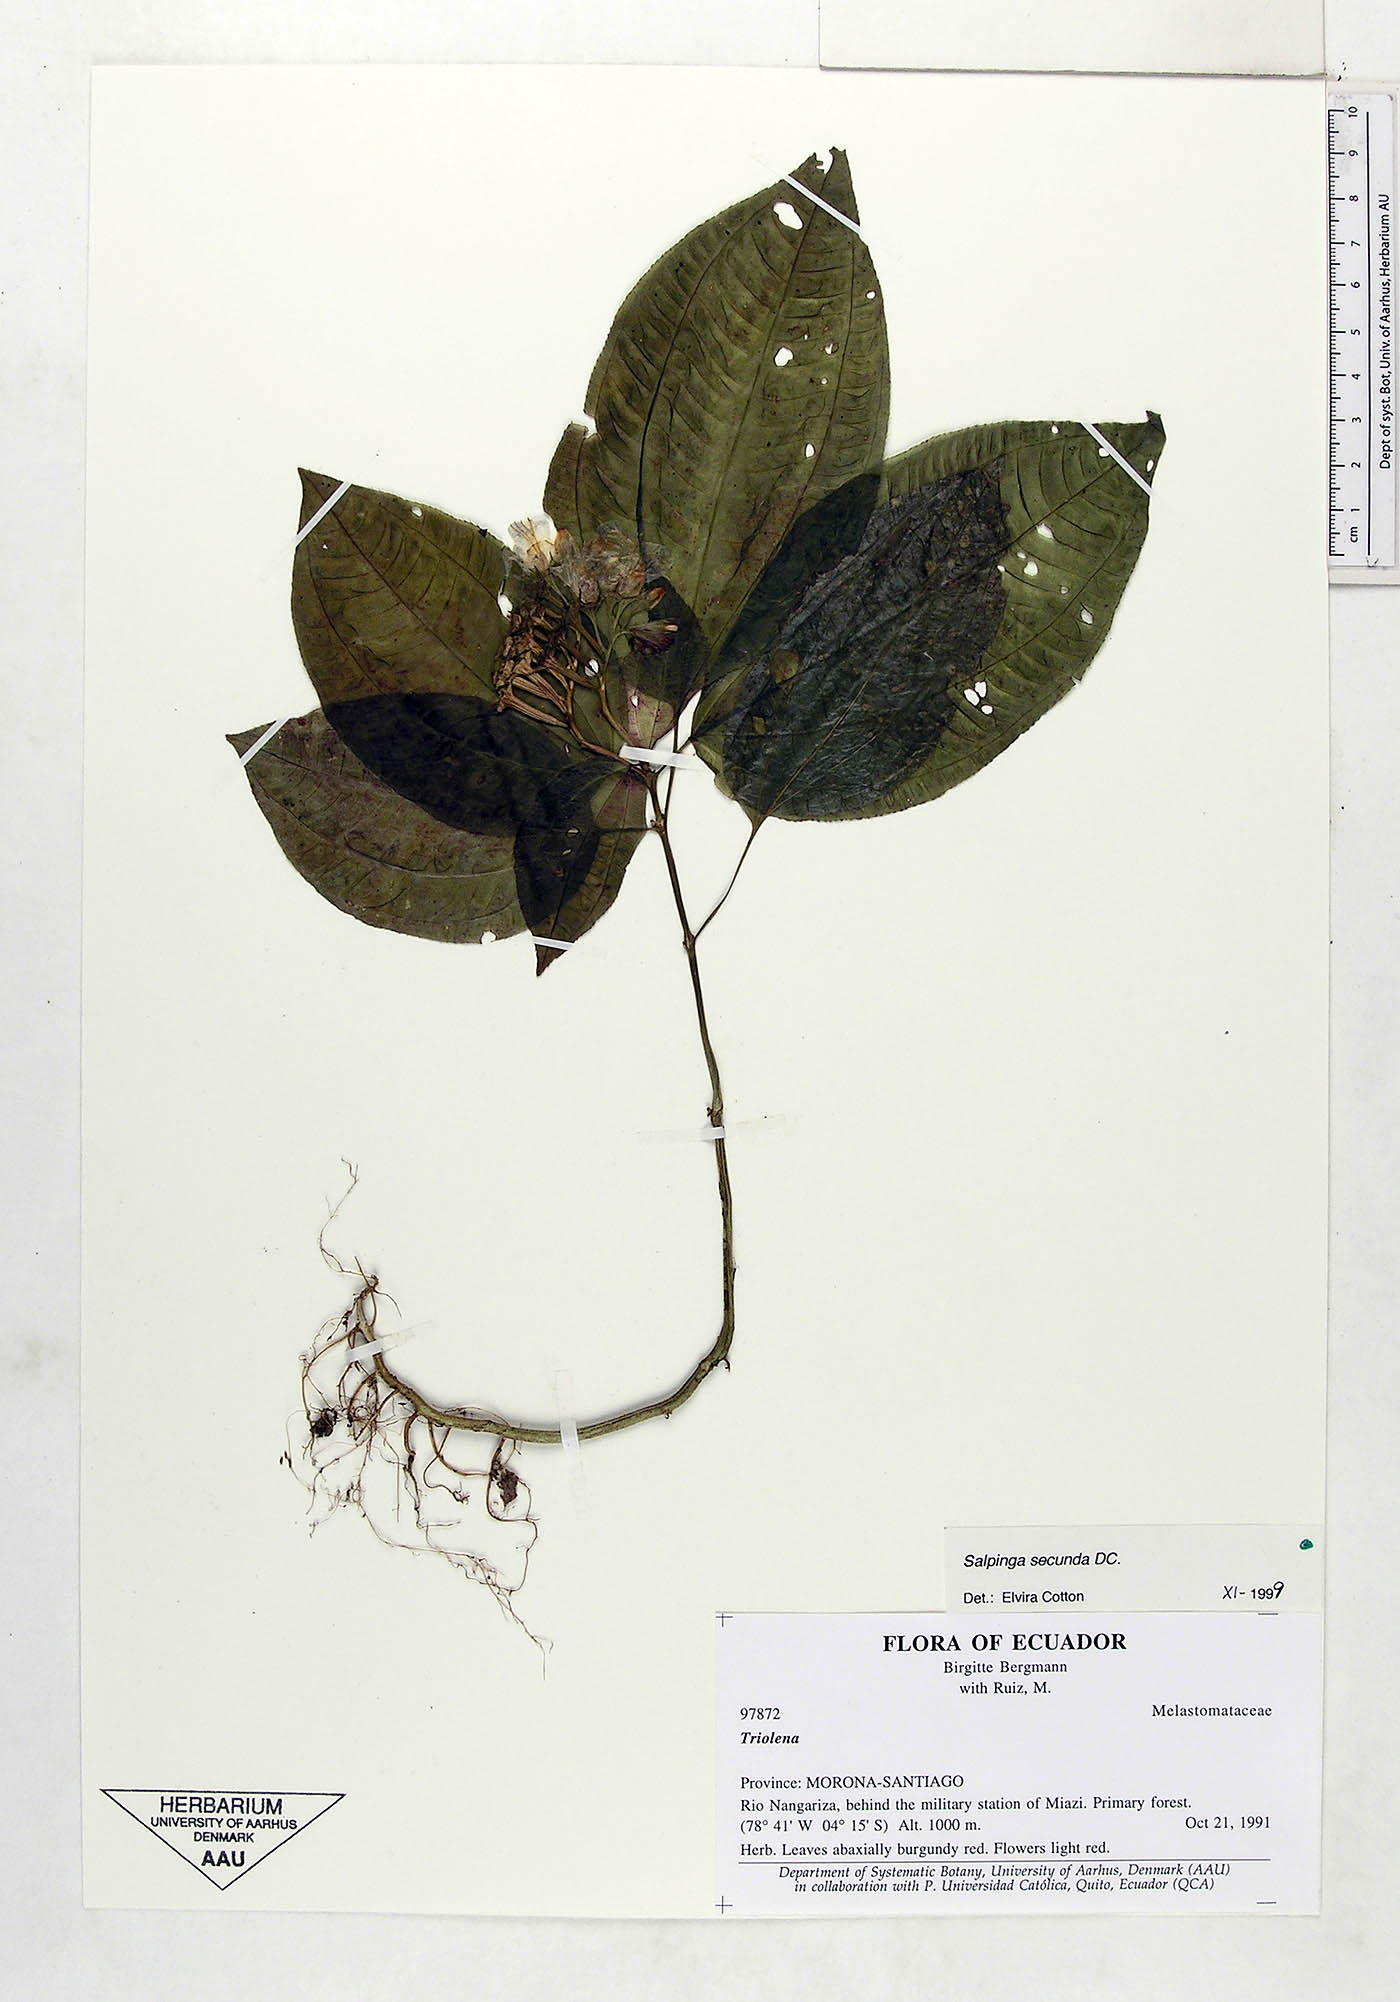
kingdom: Plantae
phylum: Tracheophyta
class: Magnoliopsida
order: Myrtales
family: Melastomataceae
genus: Salpinga
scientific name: Salpinga secunda
